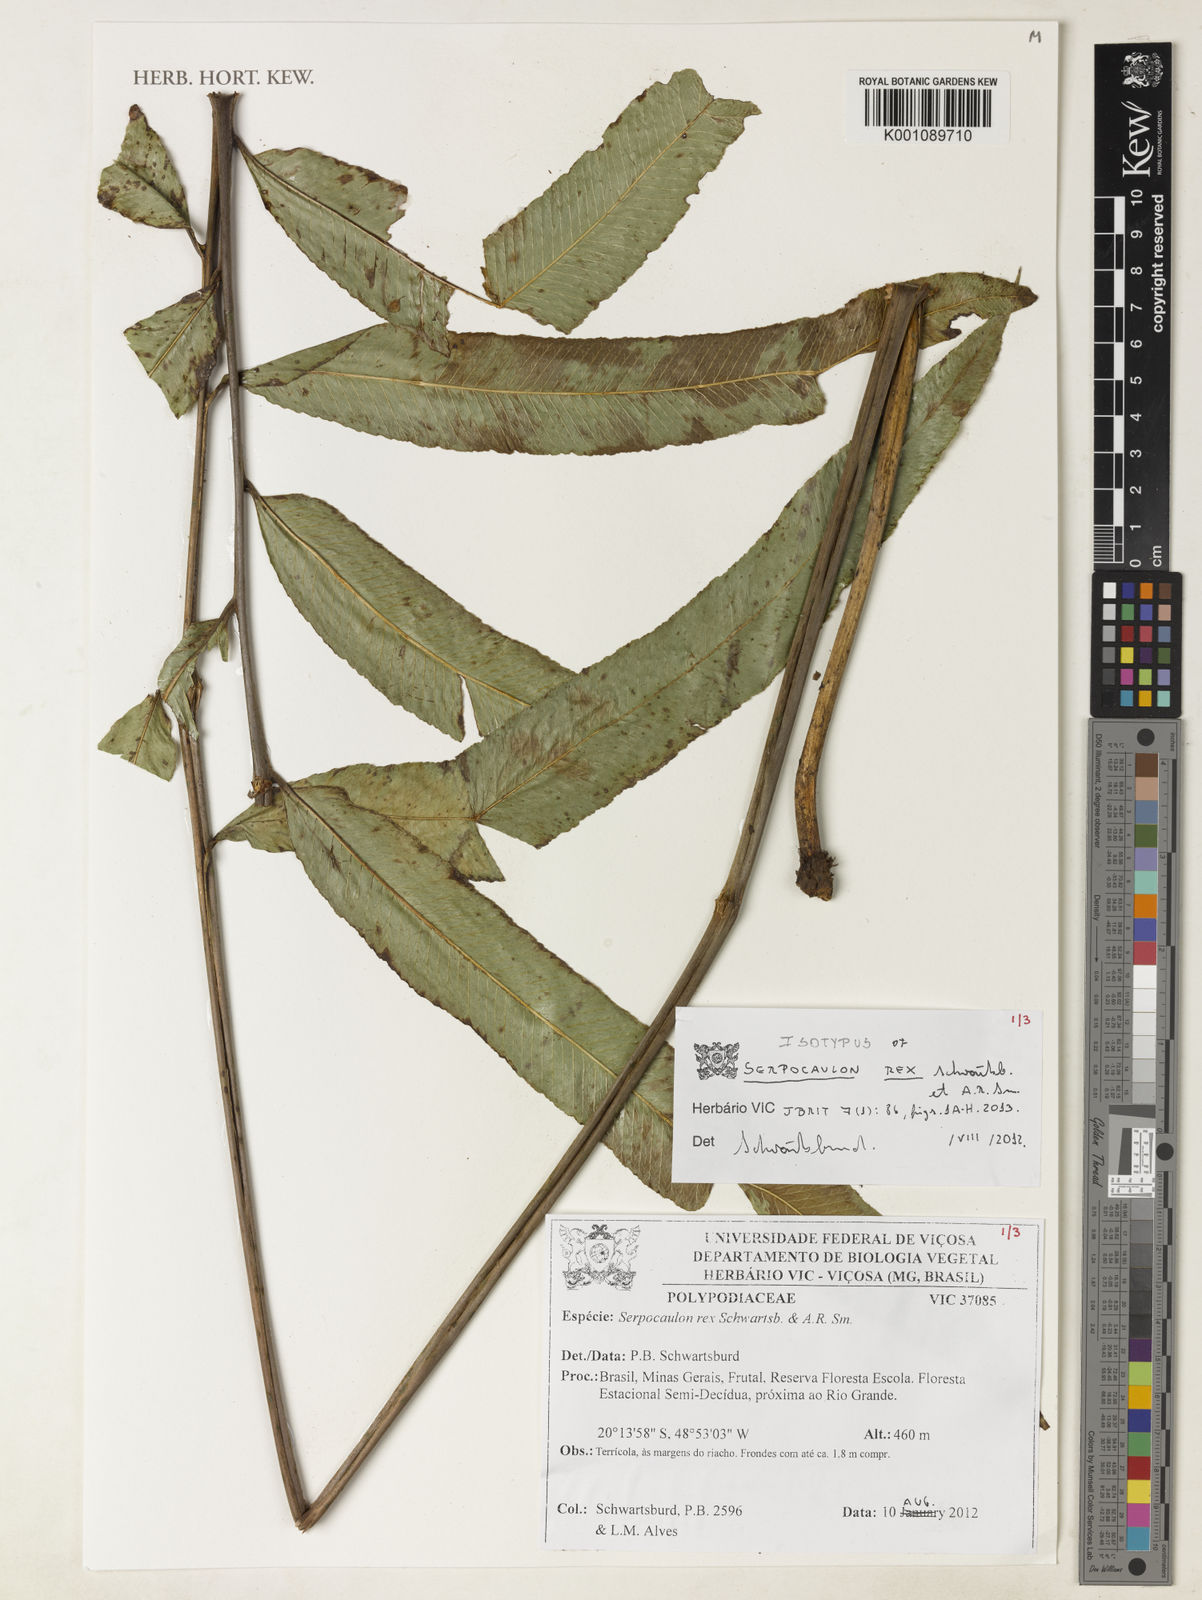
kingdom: Plantae
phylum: Tracheophyta
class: Polypodiopsida
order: Polypodiales
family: Polypodiaceae
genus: Serpocaulon
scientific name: Serpocaulon rex
